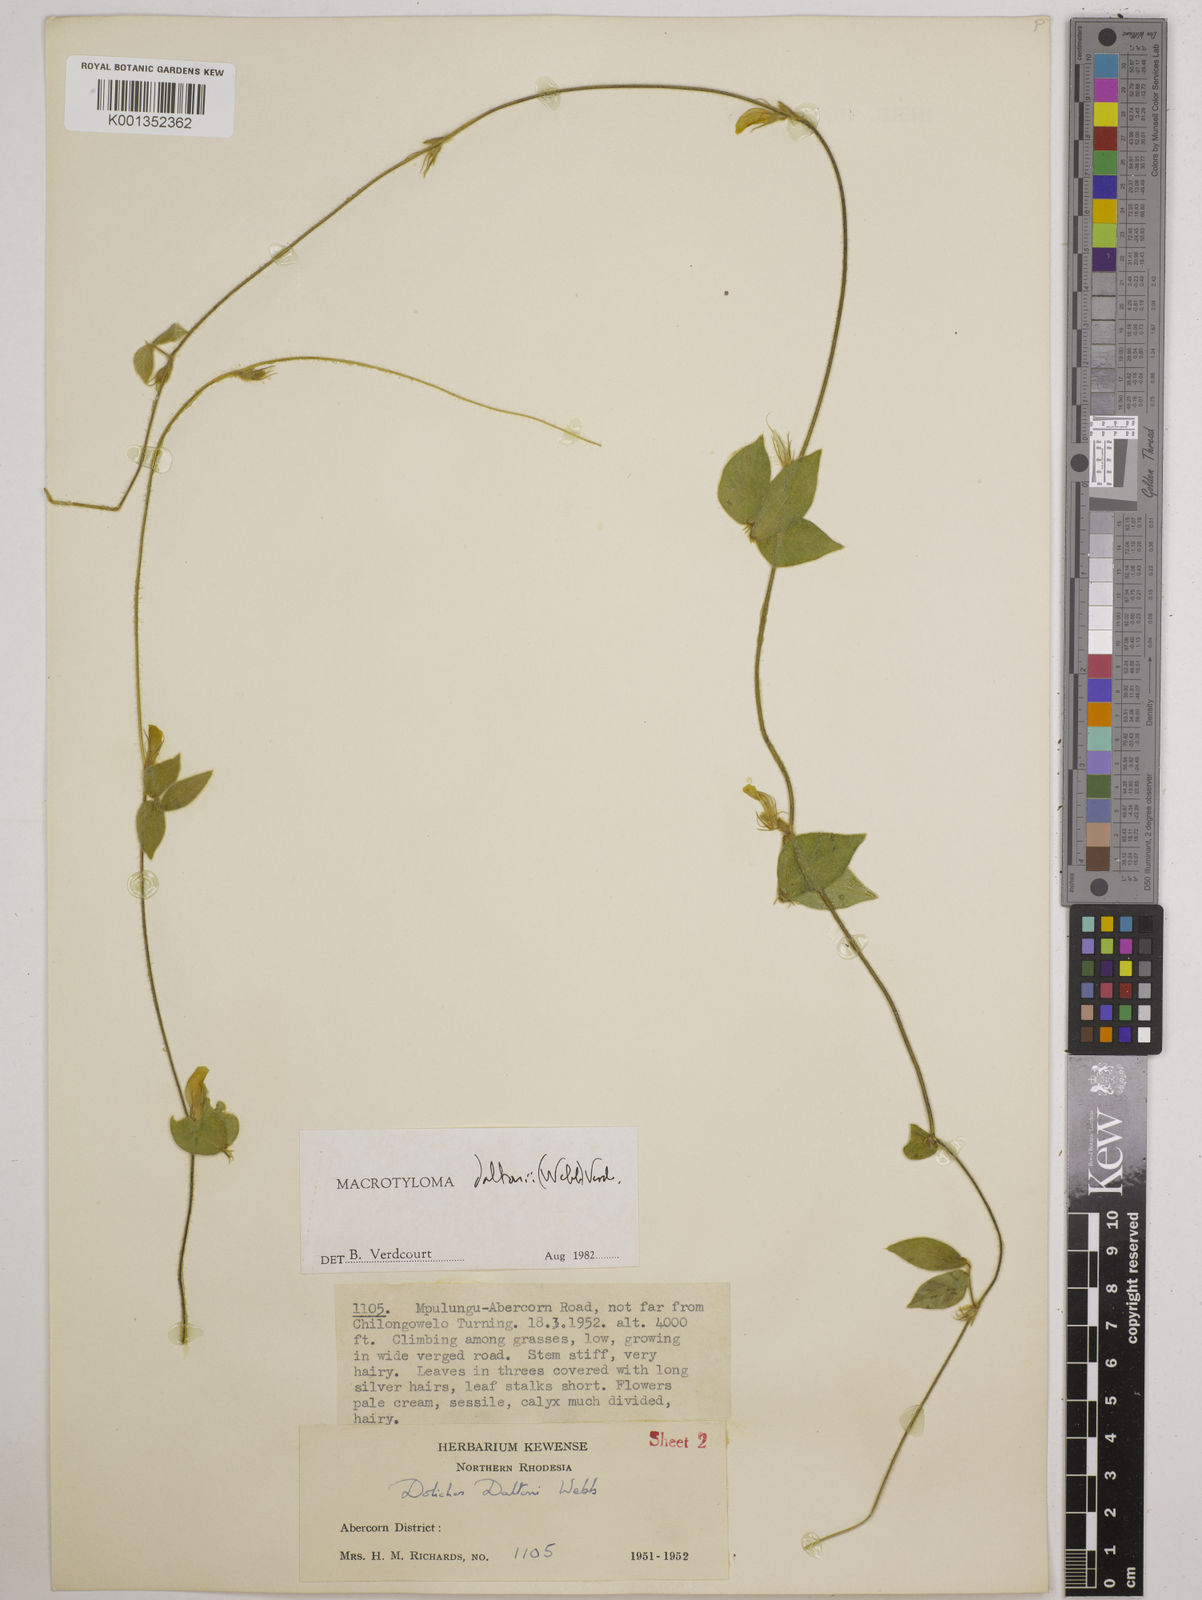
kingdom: Plantae
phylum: Tracheophyta
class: Magnoliopsida
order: Fabales
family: Fabaceae
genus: Macrotyloma
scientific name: Macrotyloma daltonii
